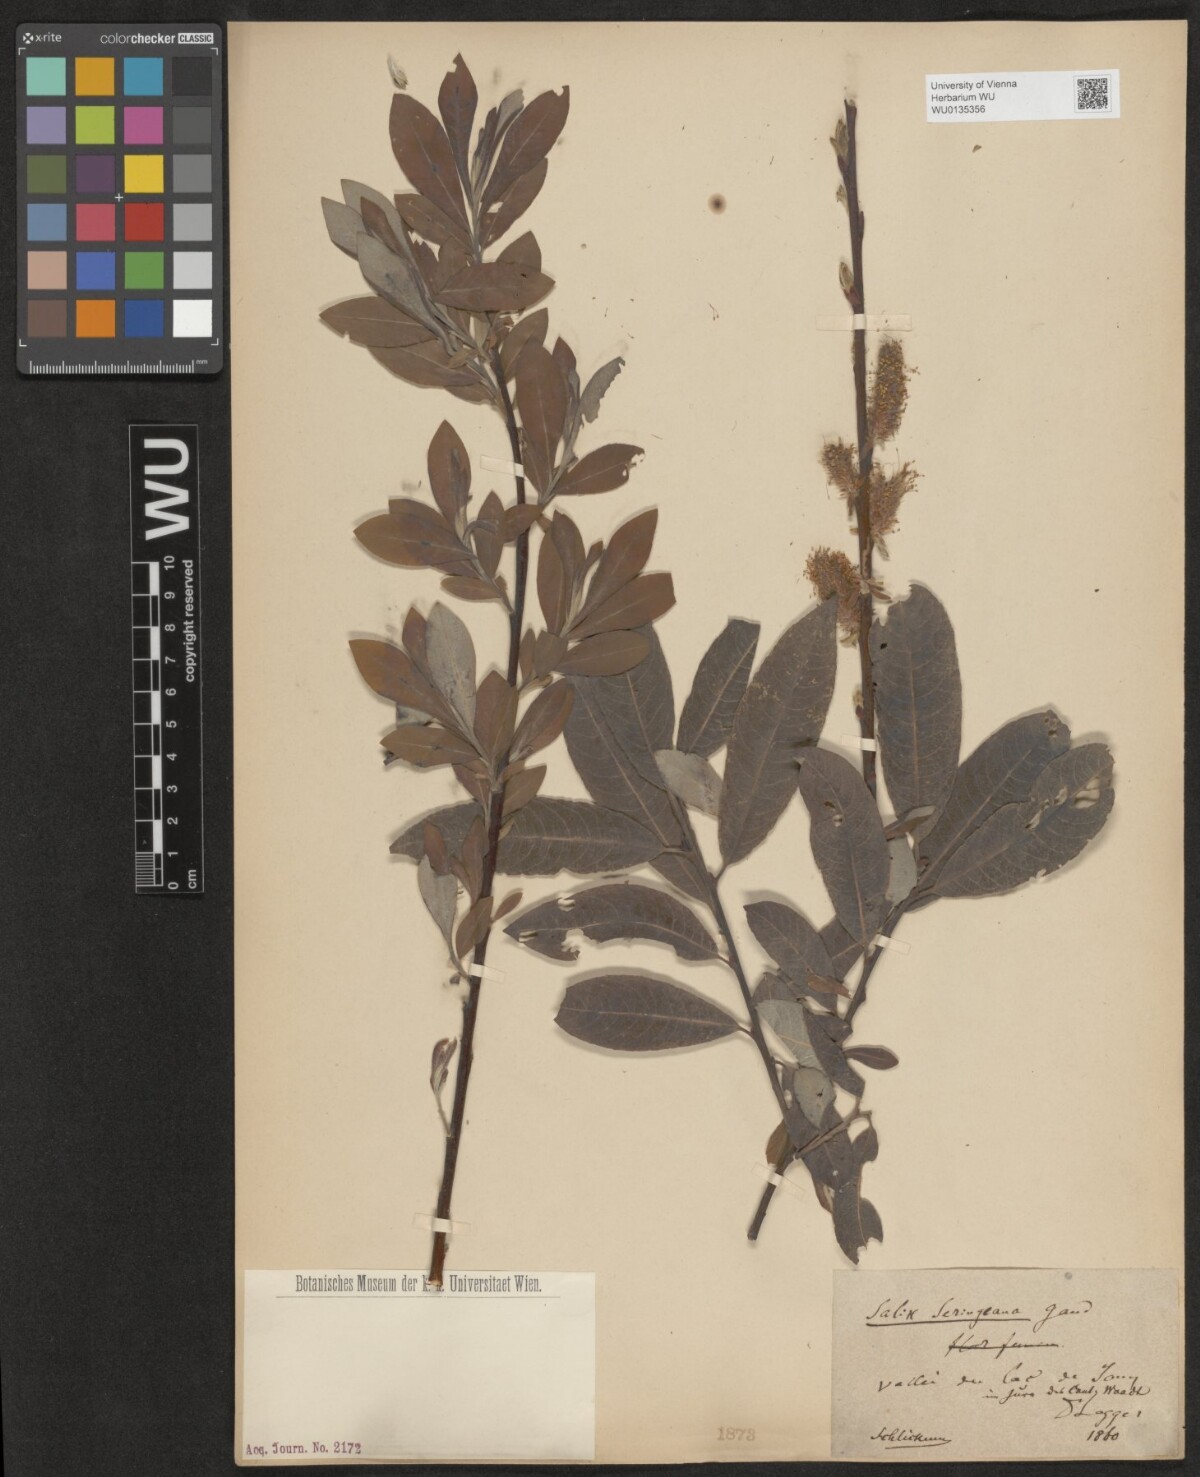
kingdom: Plantae
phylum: Tracheophyta
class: Magnoliopsida
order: Malpighiales
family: Salicaceae
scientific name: Salicaceae
